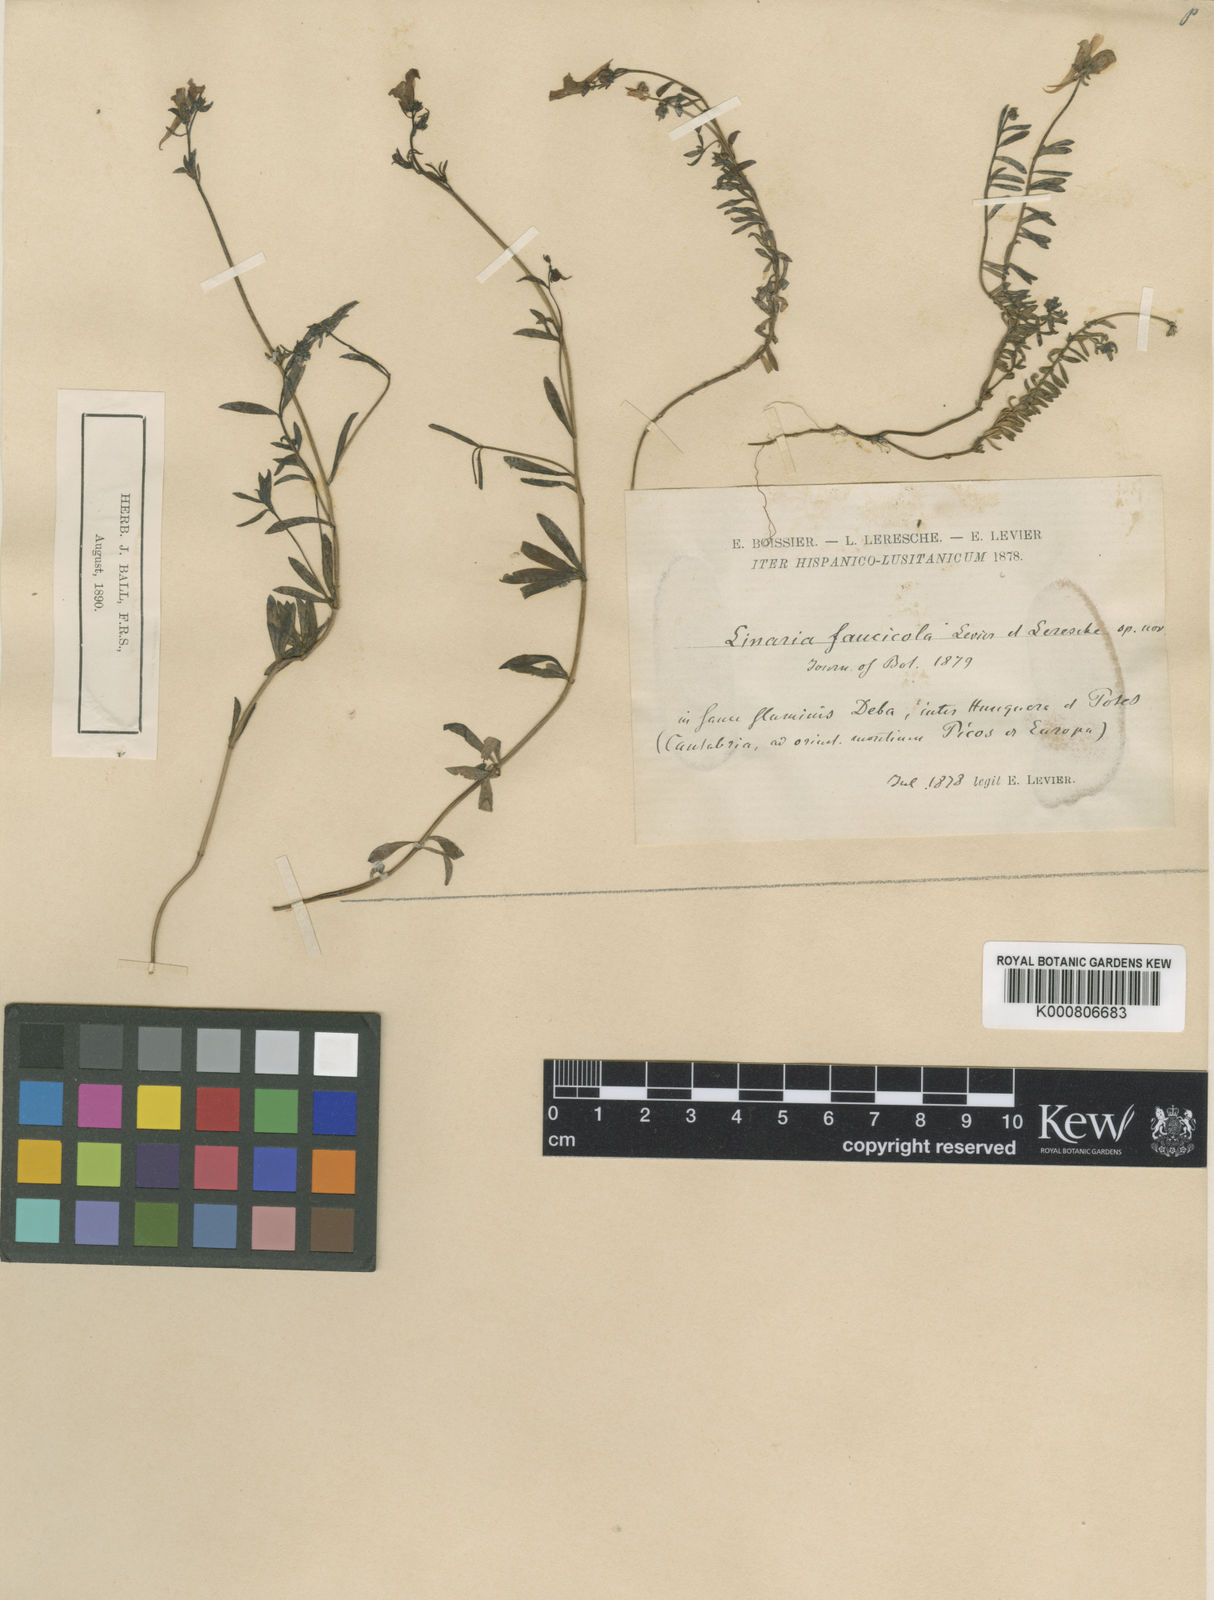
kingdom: Plantae
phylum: Tracheophyta
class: Magnoliopsida
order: Lamiales
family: Plantaginaceae
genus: Linaria
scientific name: Linaria alpina
